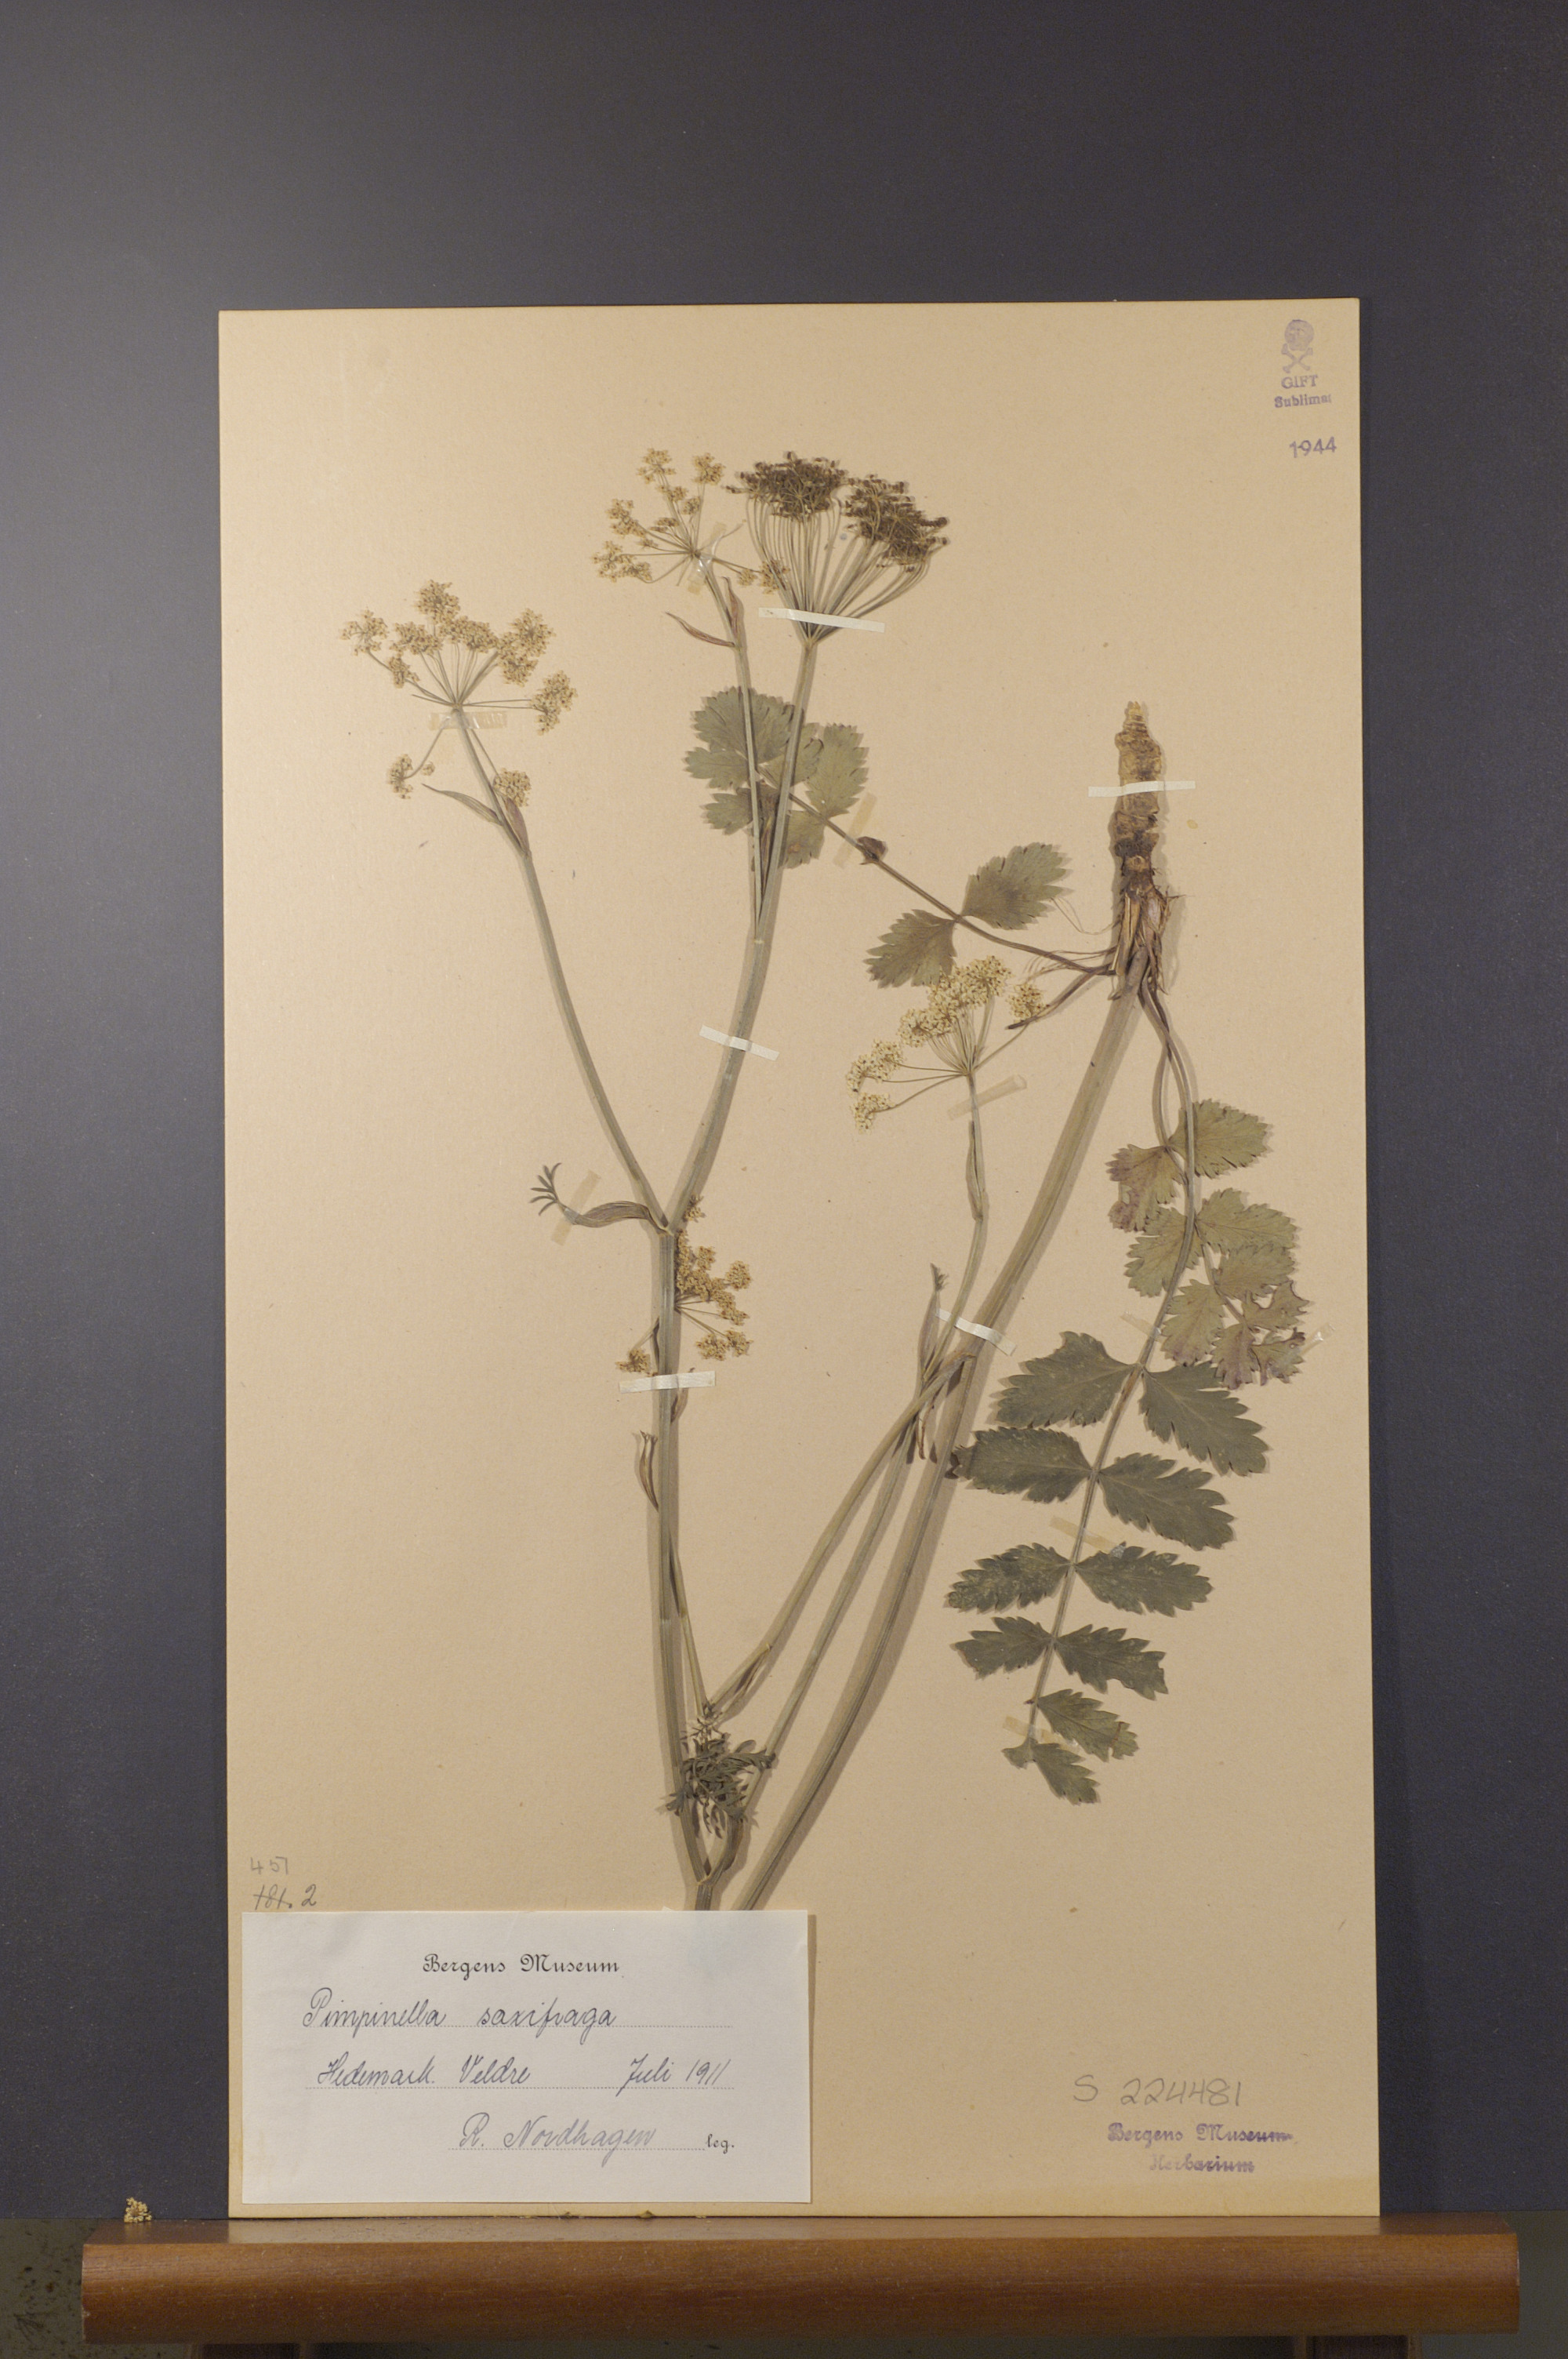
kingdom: Plantae
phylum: Tracheophyta
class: Magnoliopsida
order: Apiales
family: Apiaceae
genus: Pimpinella
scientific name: Pimpinella saxifraga
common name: Burnet-saxifrage
